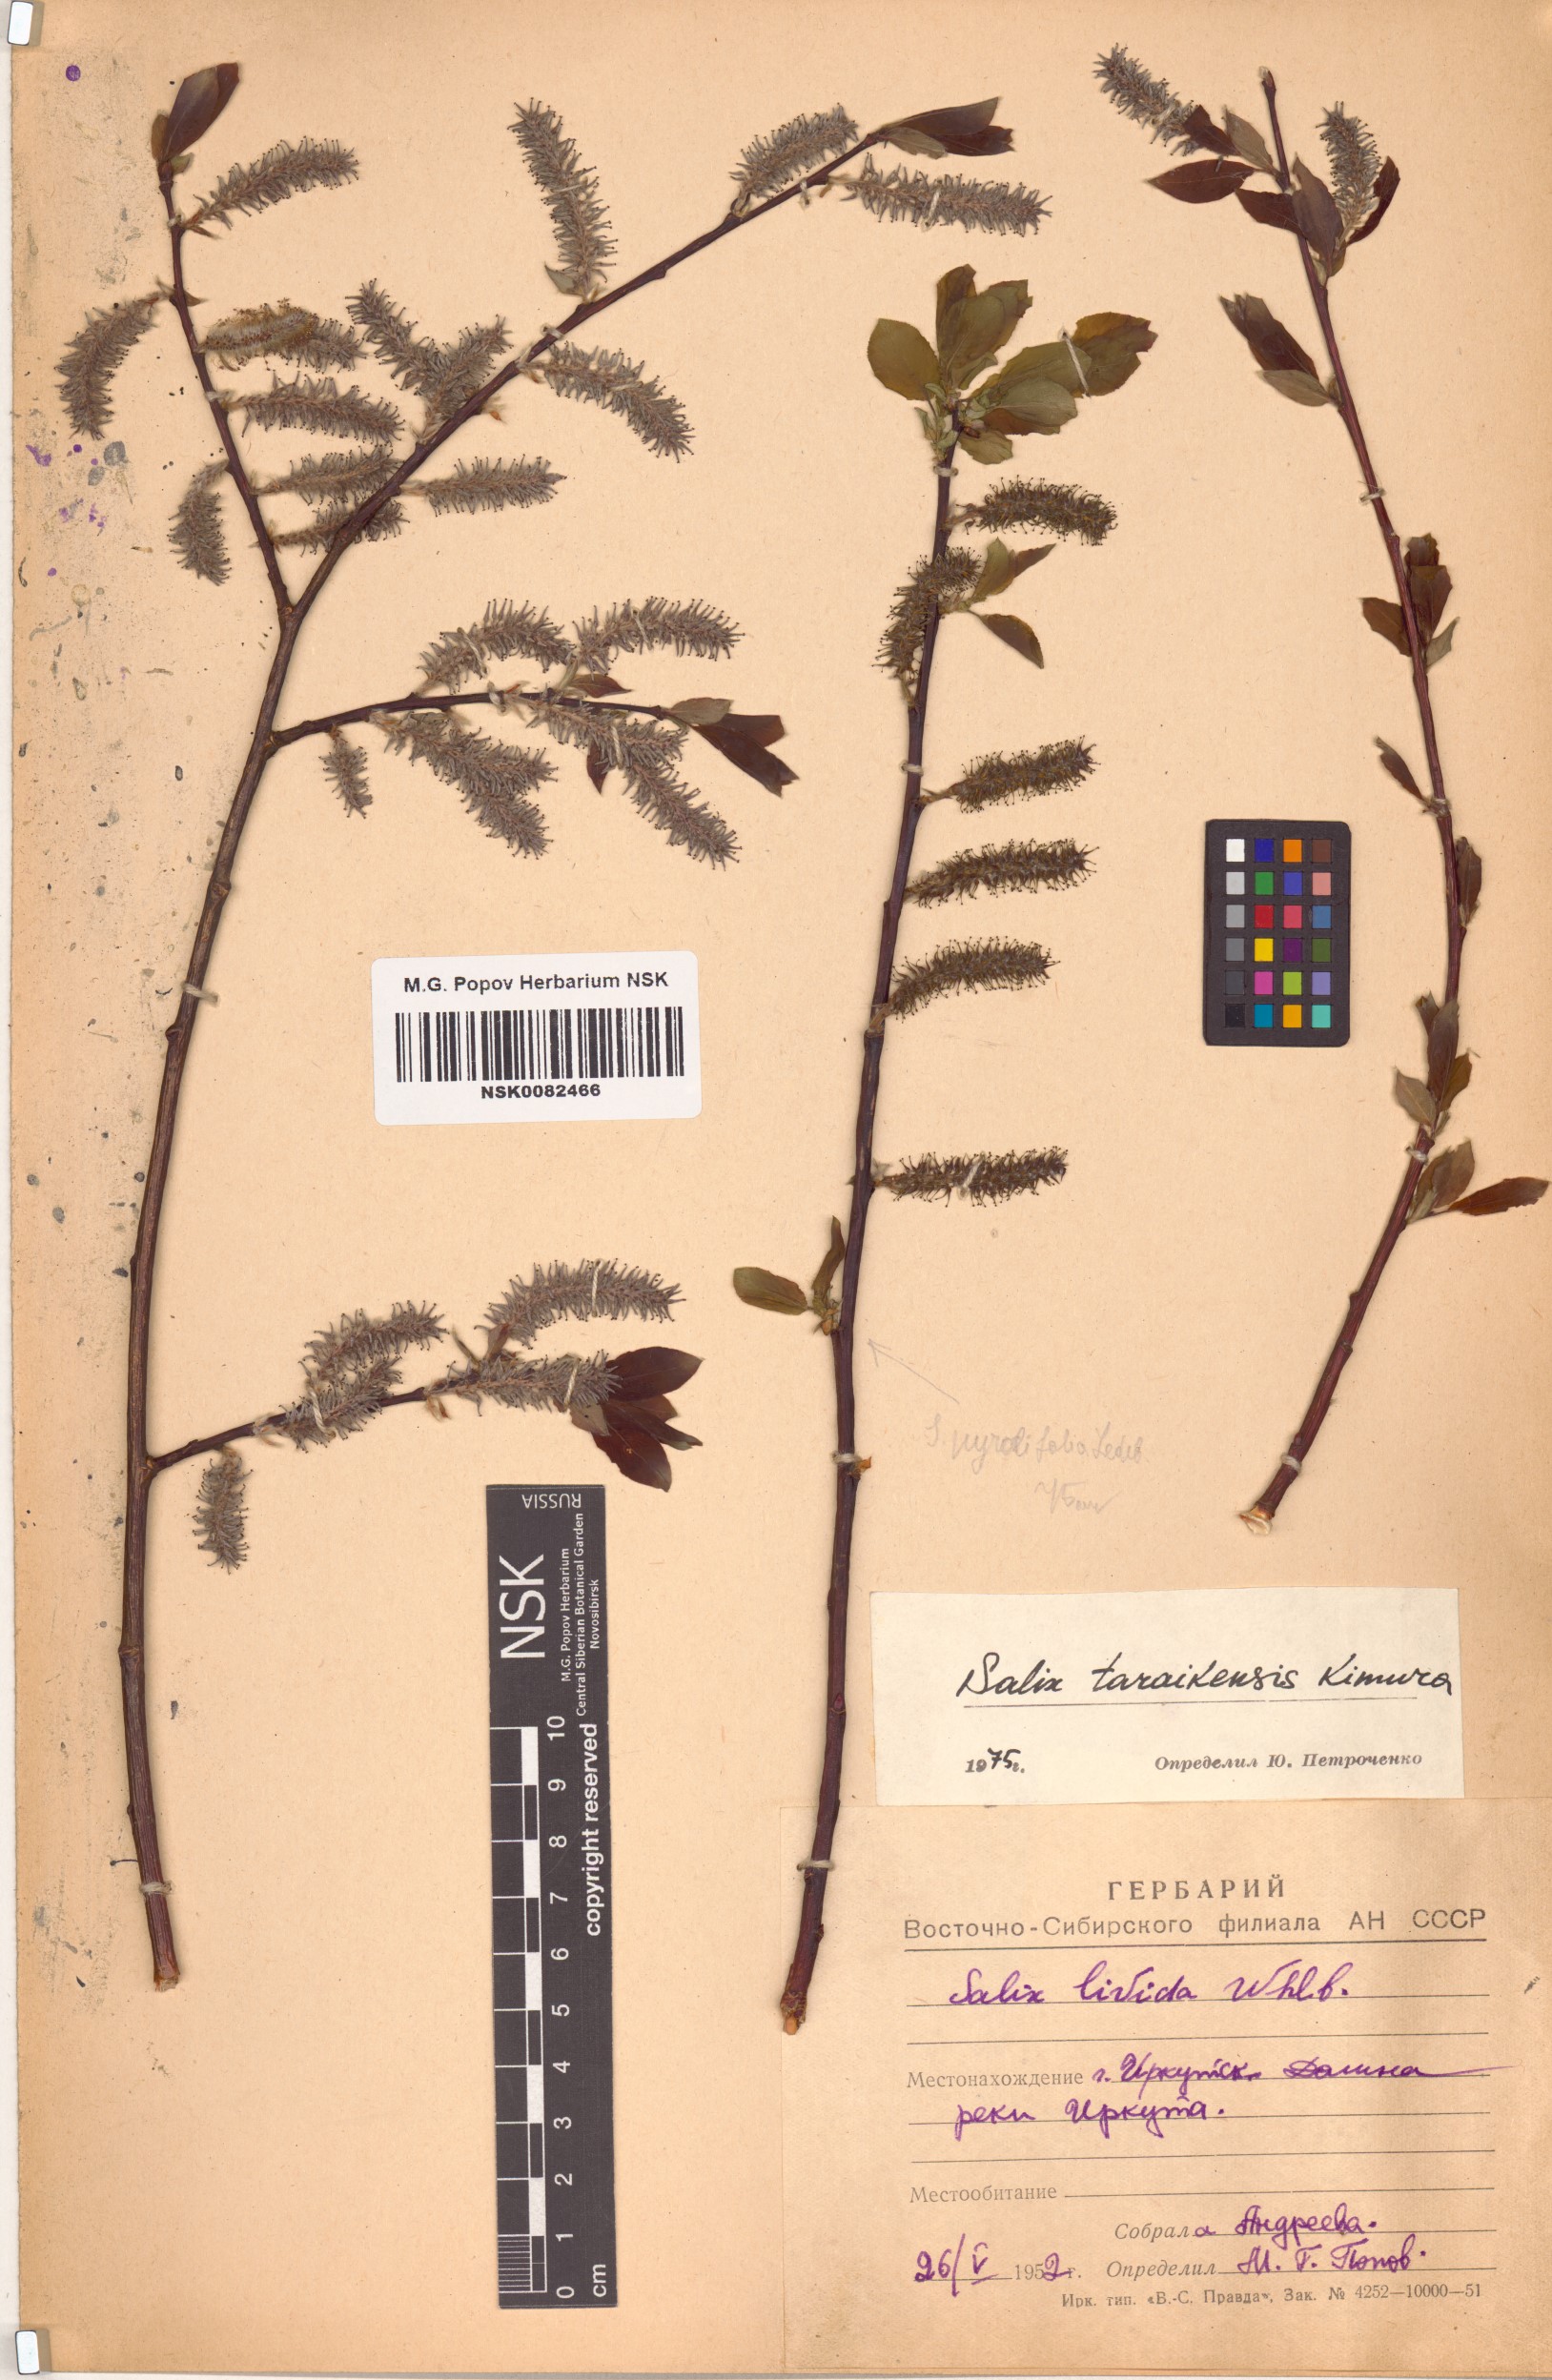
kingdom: Plantae
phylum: Tracheophyta
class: Magnoliopsida
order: Malpighiales
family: Salicaceae
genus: Salix
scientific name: Salix taraikensis
